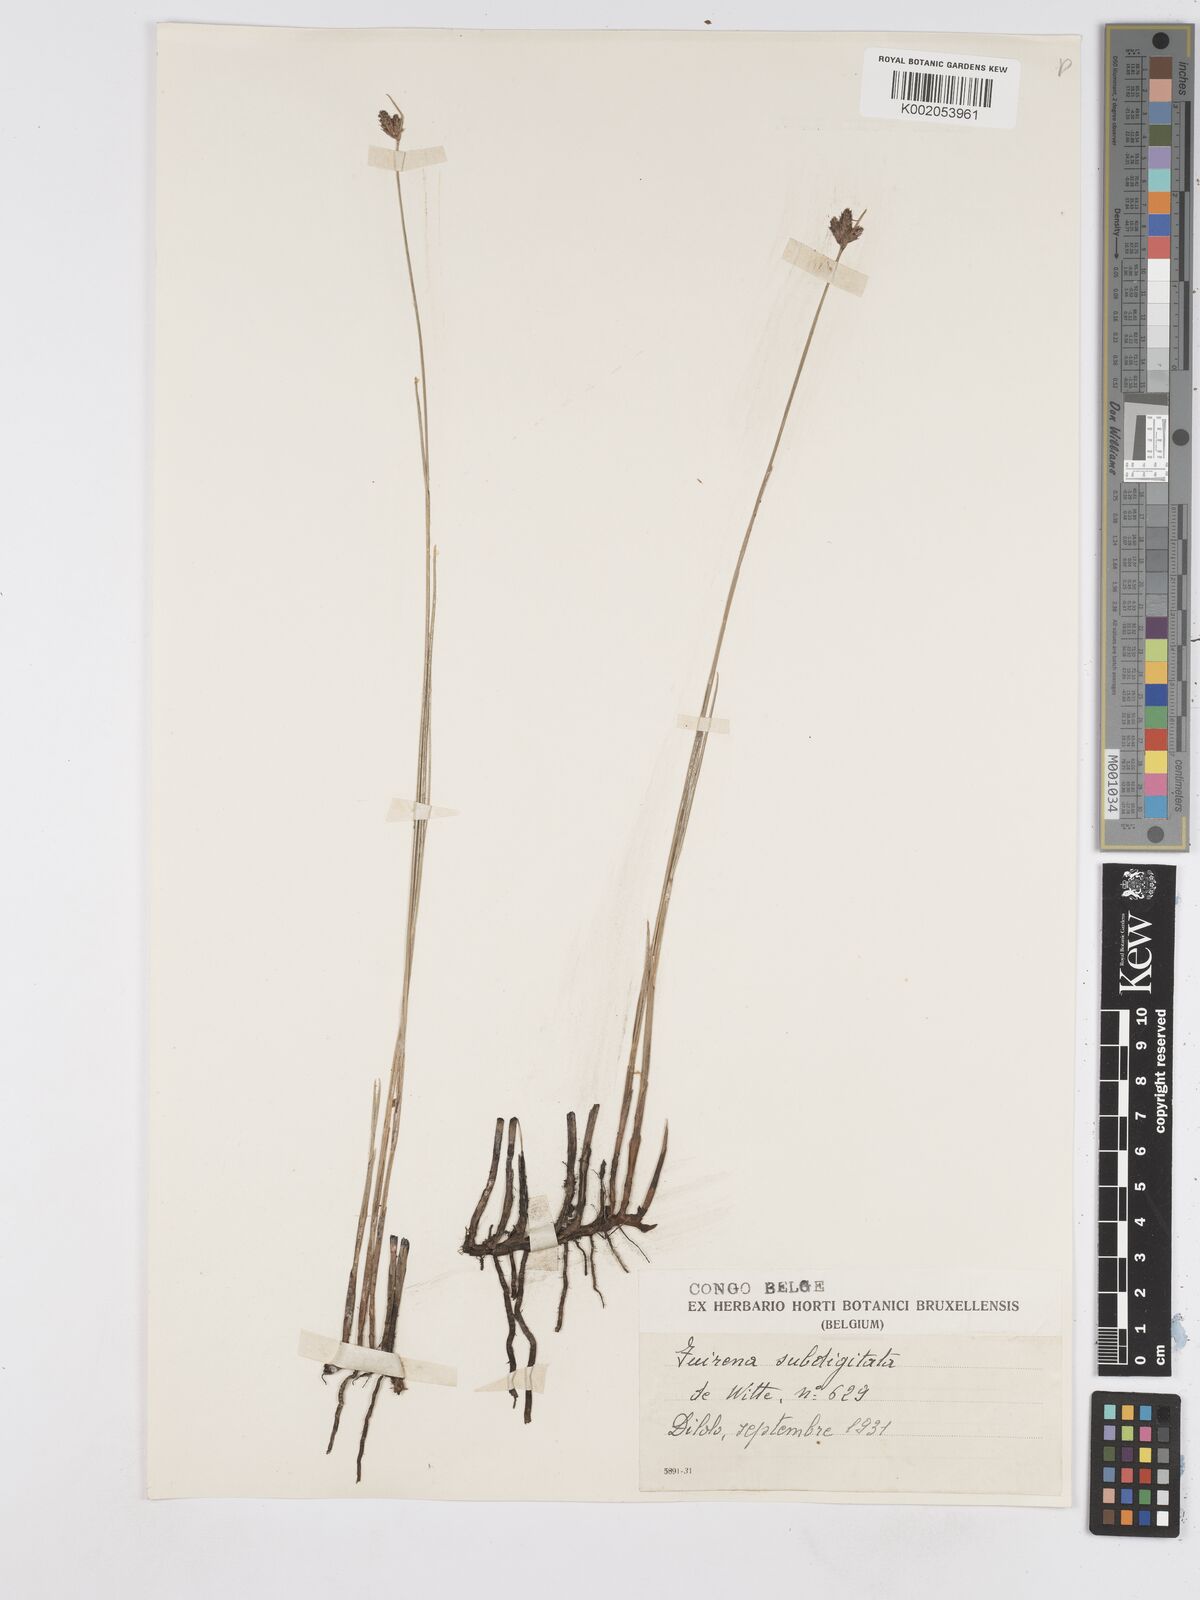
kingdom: Plantae
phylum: Tracheophyta
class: Liliopsida
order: Poales
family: Cyperaceae
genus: Fuirena
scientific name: Fuirena coerulescens
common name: Blue umbrella-sedge
